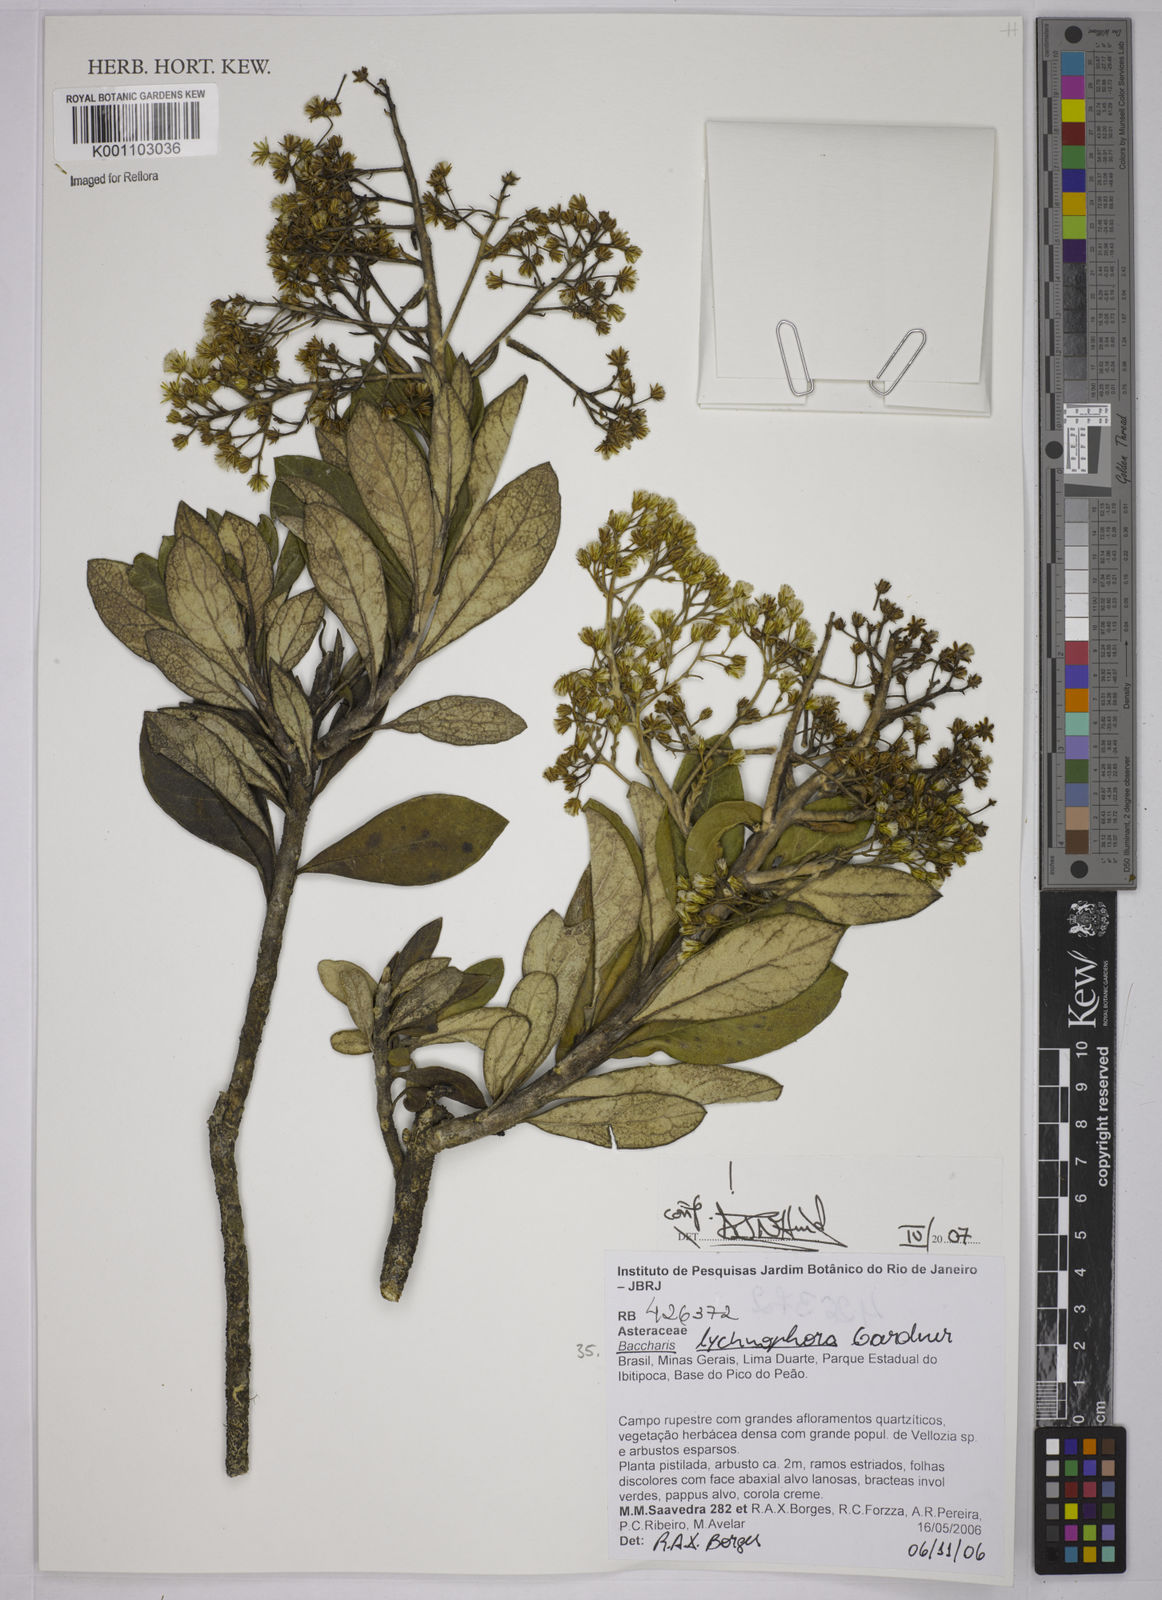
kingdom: Plantae
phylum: Tracheophyta
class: Magnoliopsida
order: Asterales
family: Asteraceae
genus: Baccharis
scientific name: Baccharis lychnophora
